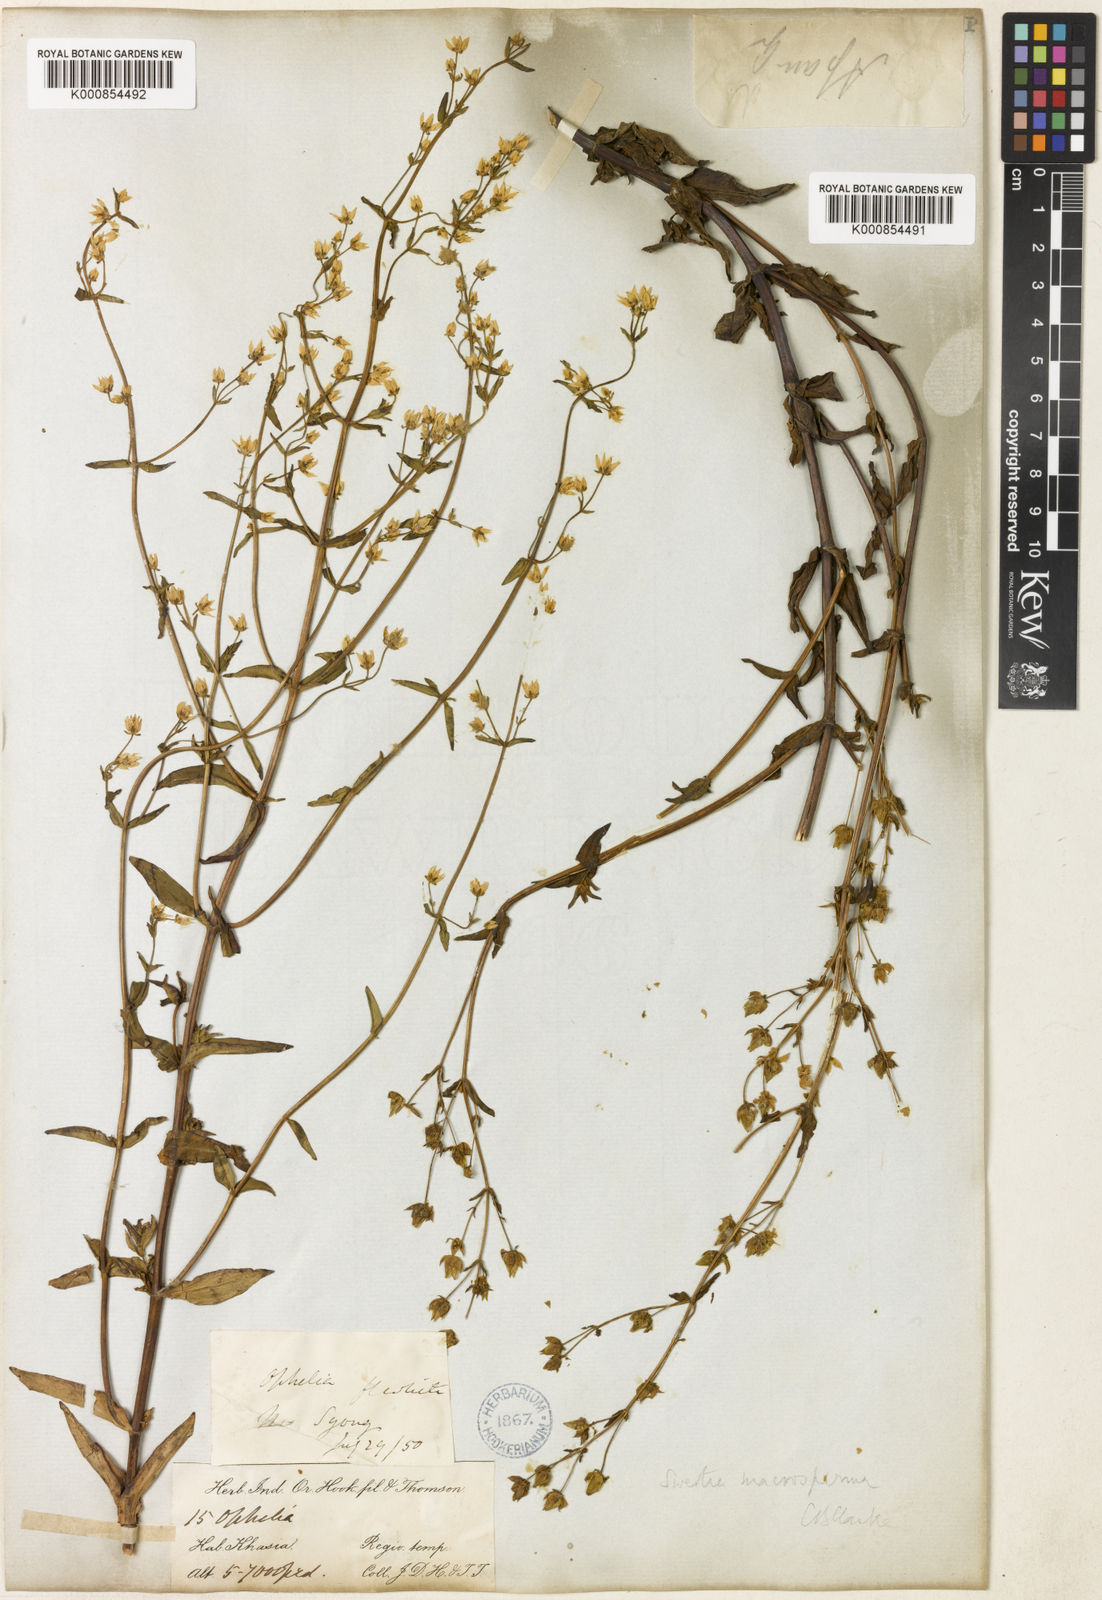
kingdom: Plantae
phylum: Tracheophyta
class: Magnoliopsida
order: Gentianales
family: Gentianaceae
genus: Swertia
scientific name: Swertia macrosperma
